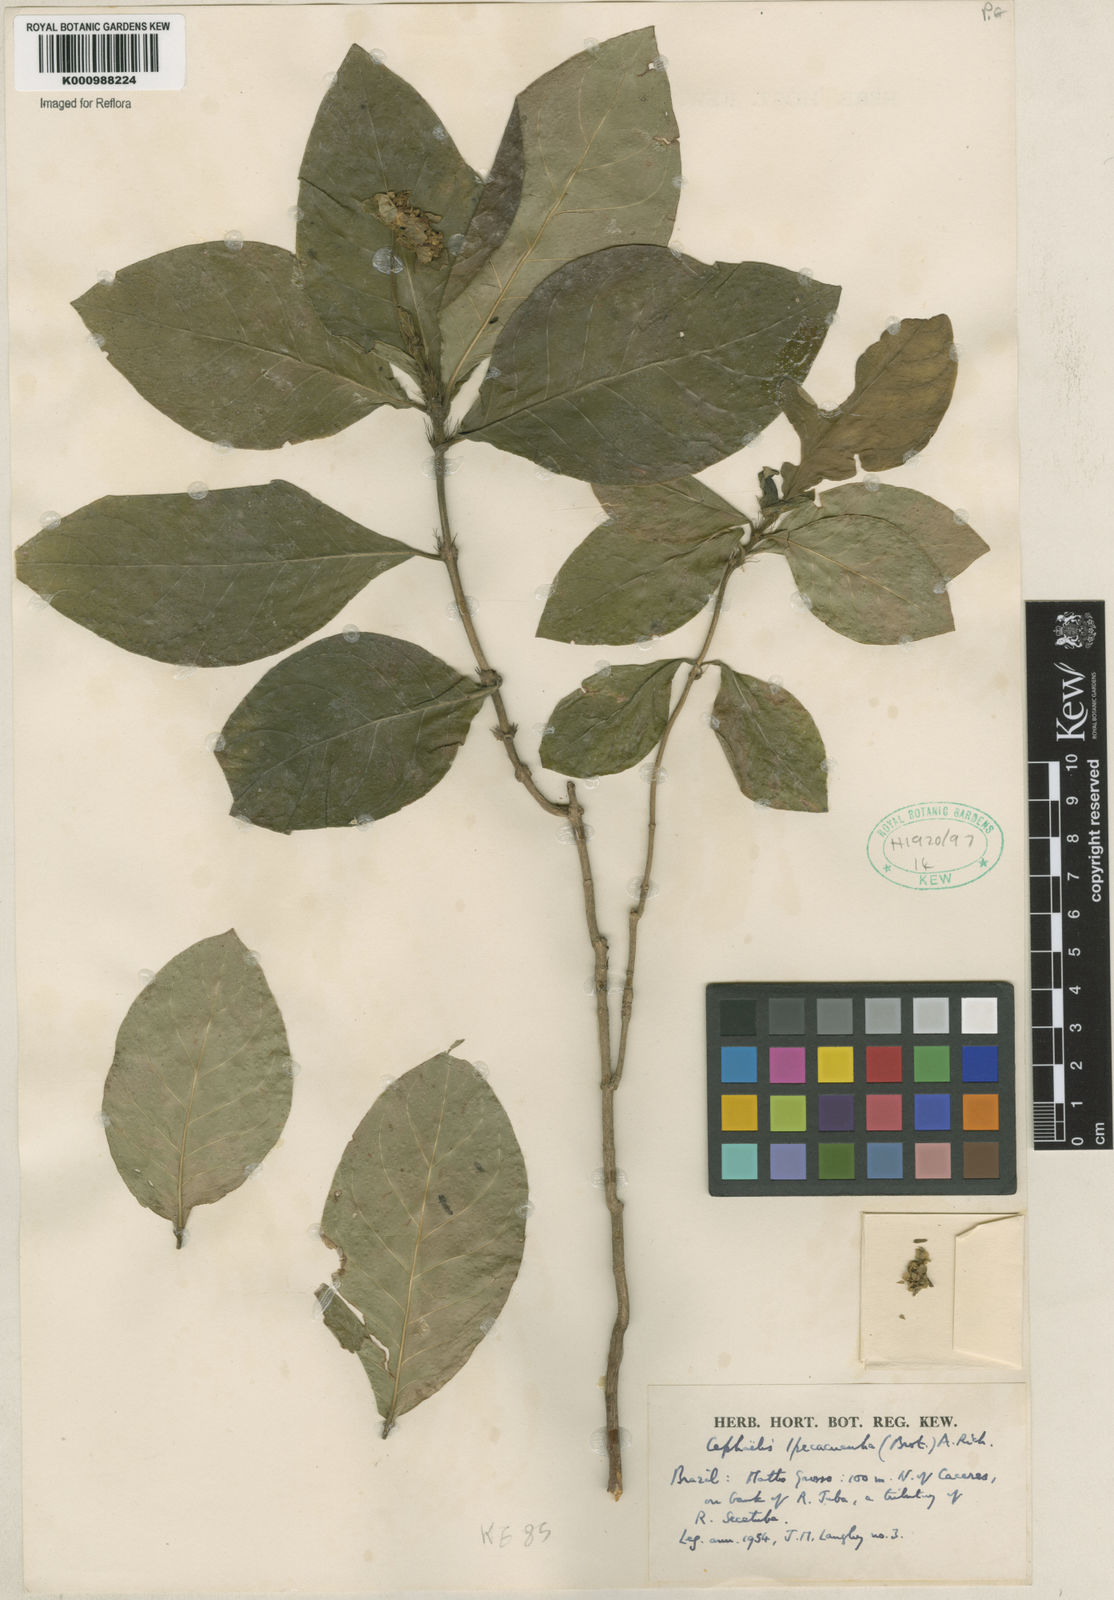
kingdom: Plantae
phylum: Tracheophyta
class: Magnoliopsida
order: Gentianales
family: Rubiaceae
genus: Carapichea
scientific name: Carapichea ipecacuanha
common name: Ipecac
